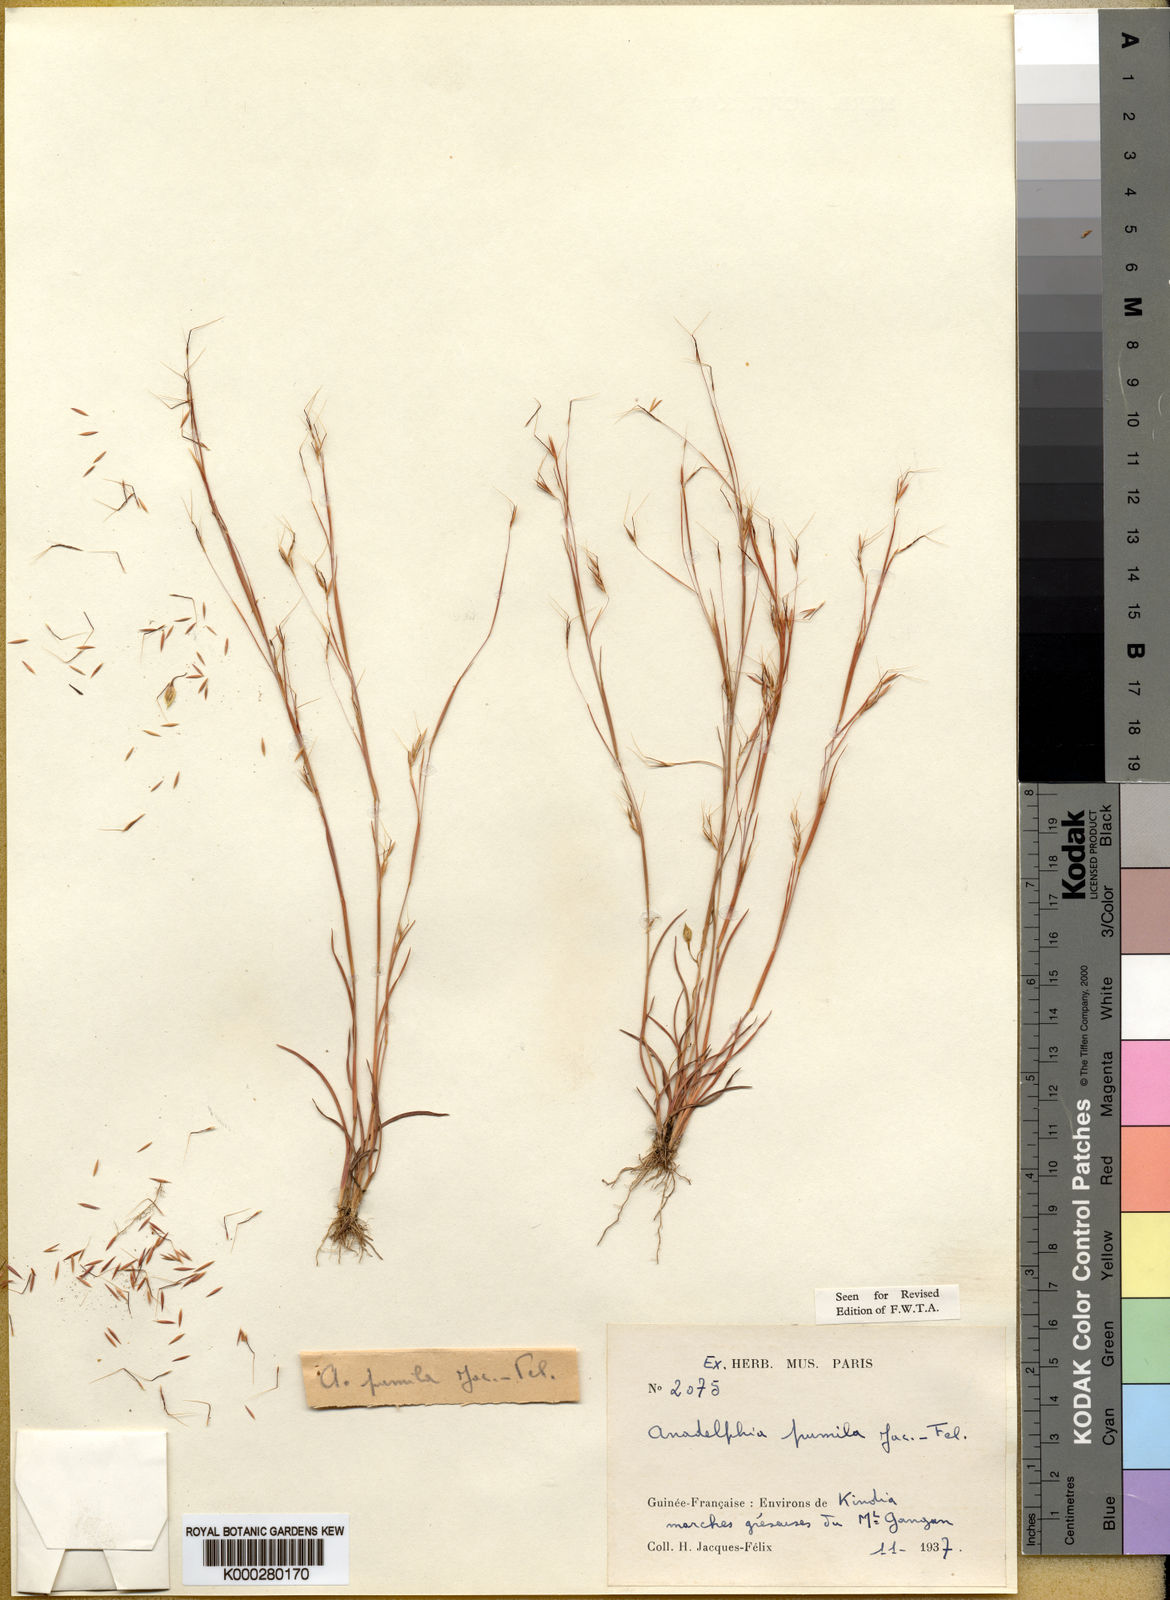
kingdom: Plantae
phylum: Tracheophyta
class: Liliopsida
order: Poales
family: Poaceae
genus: Anadelphia
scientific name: Anadelphia
